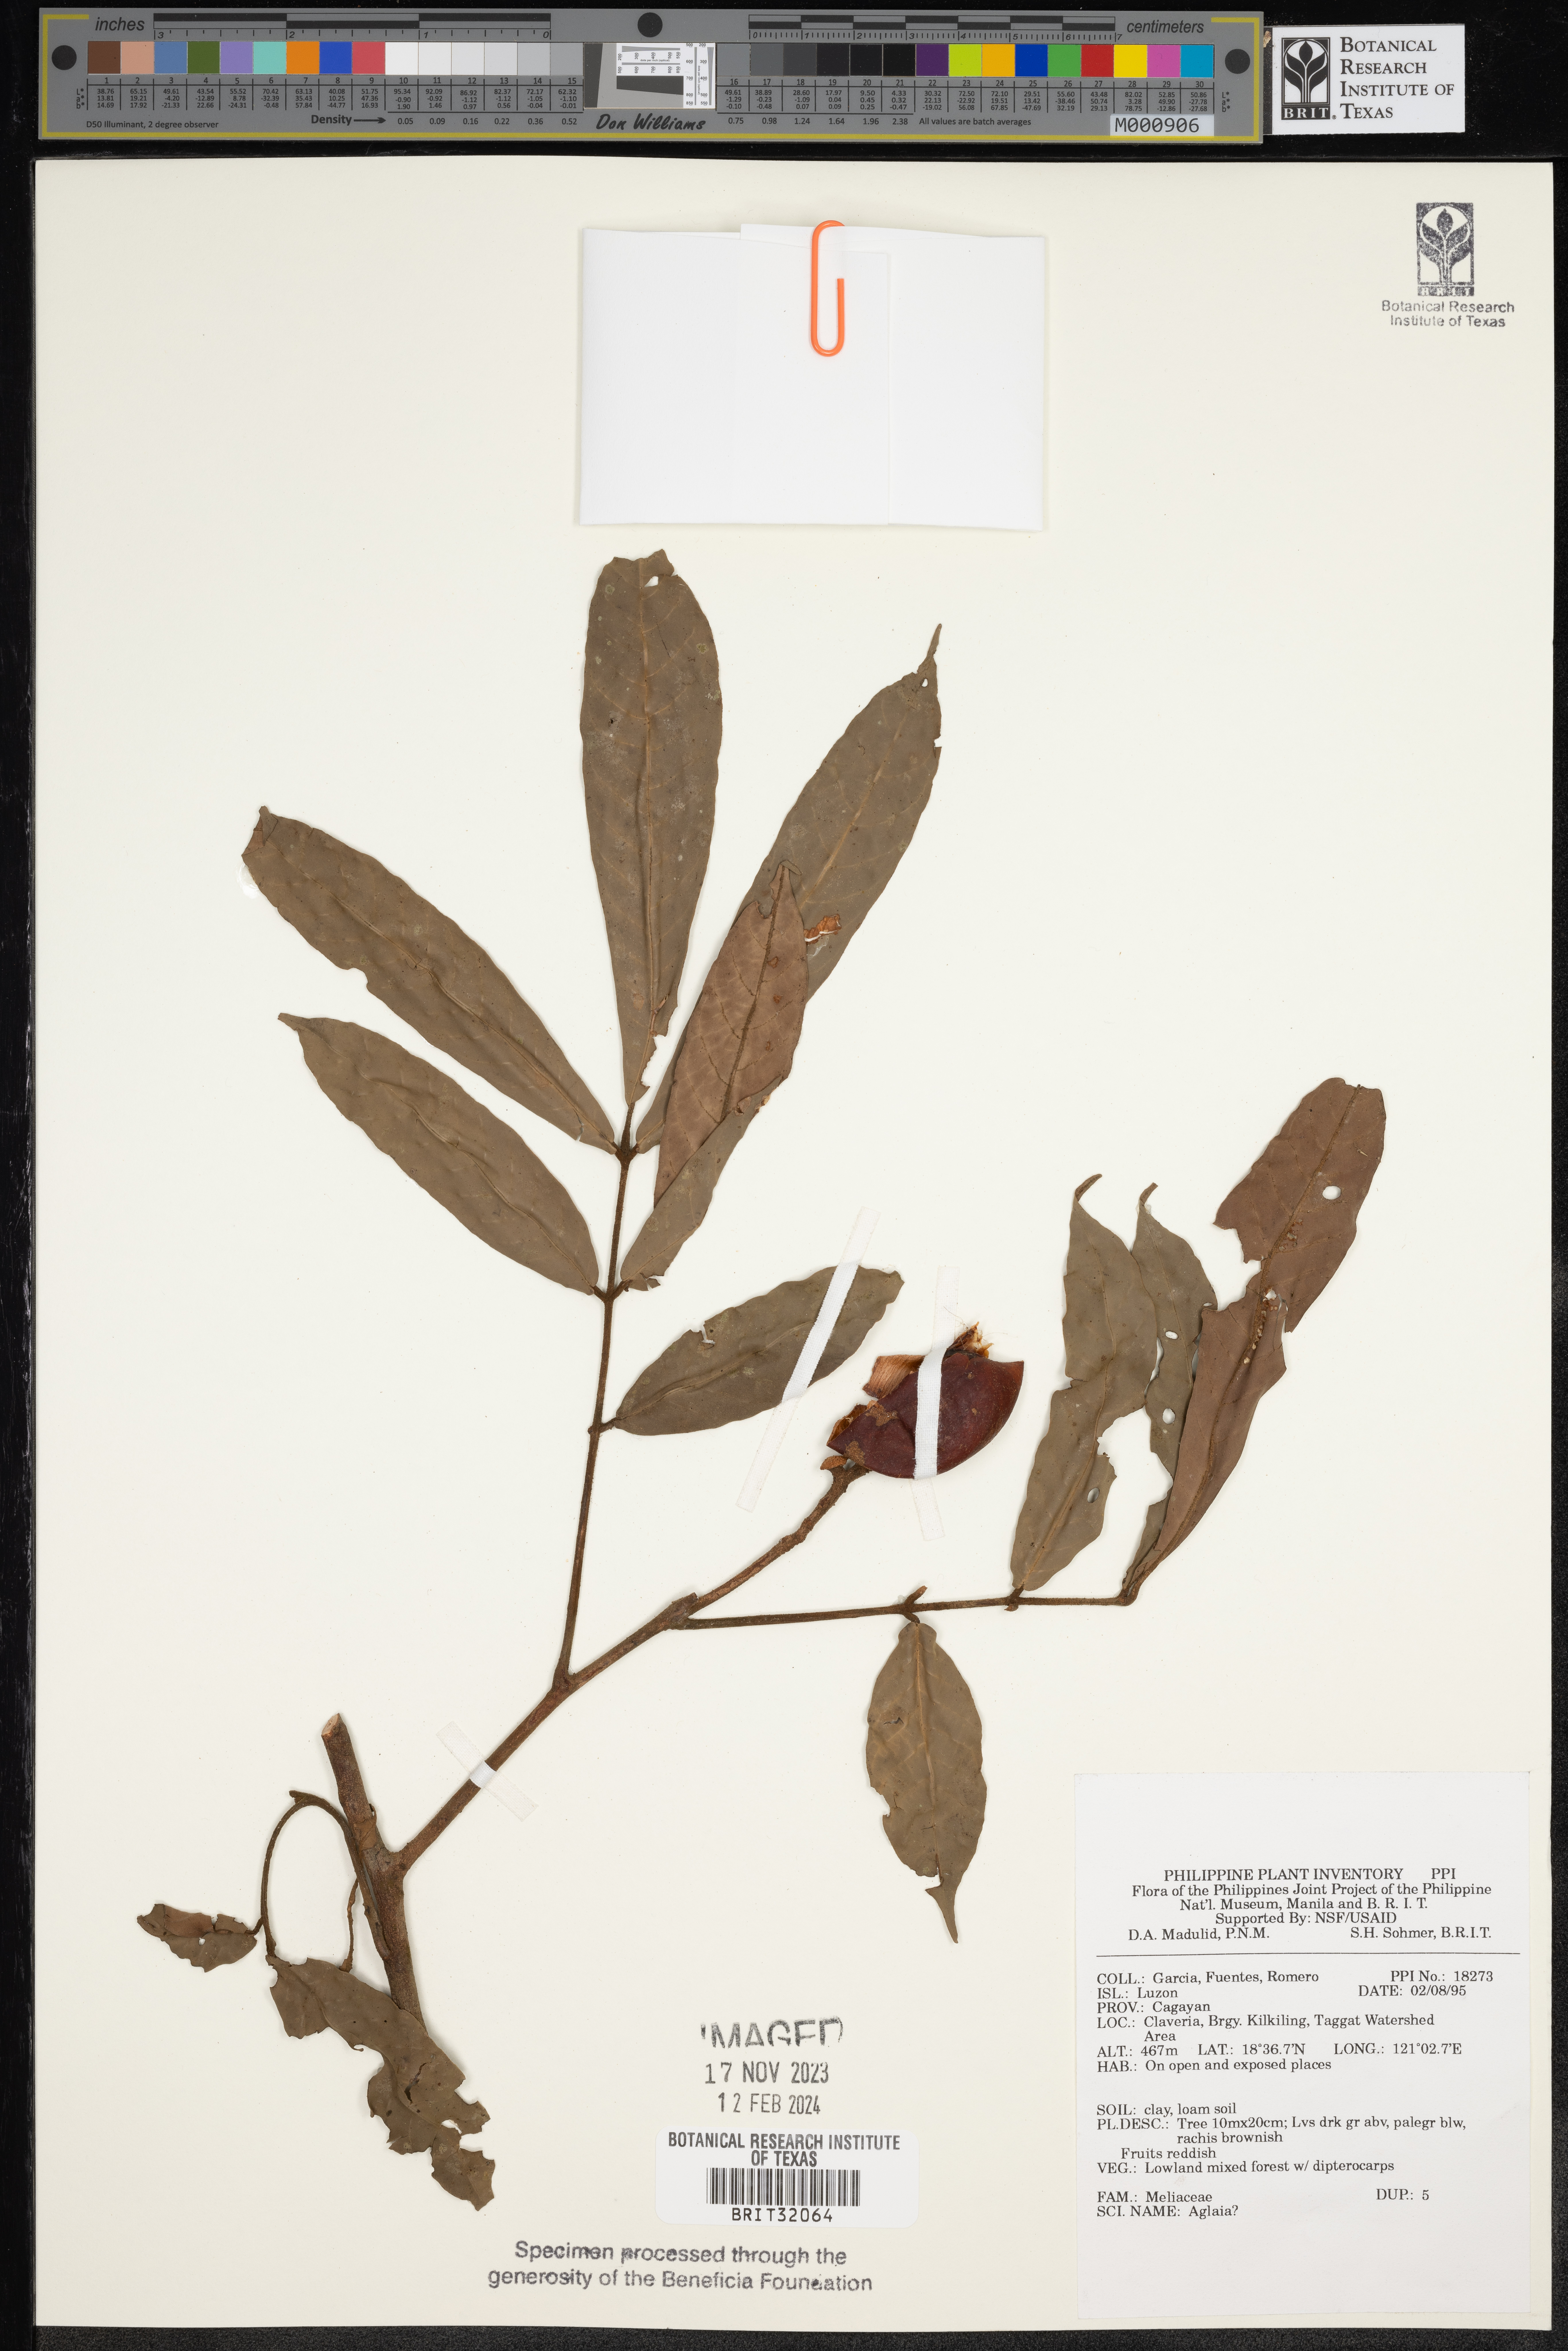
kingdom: Plantae
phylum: Tracheophyta
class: Magnoliopsida
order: Sapindales
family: Meliaceae
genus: Aglaia
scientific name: Aglaia
